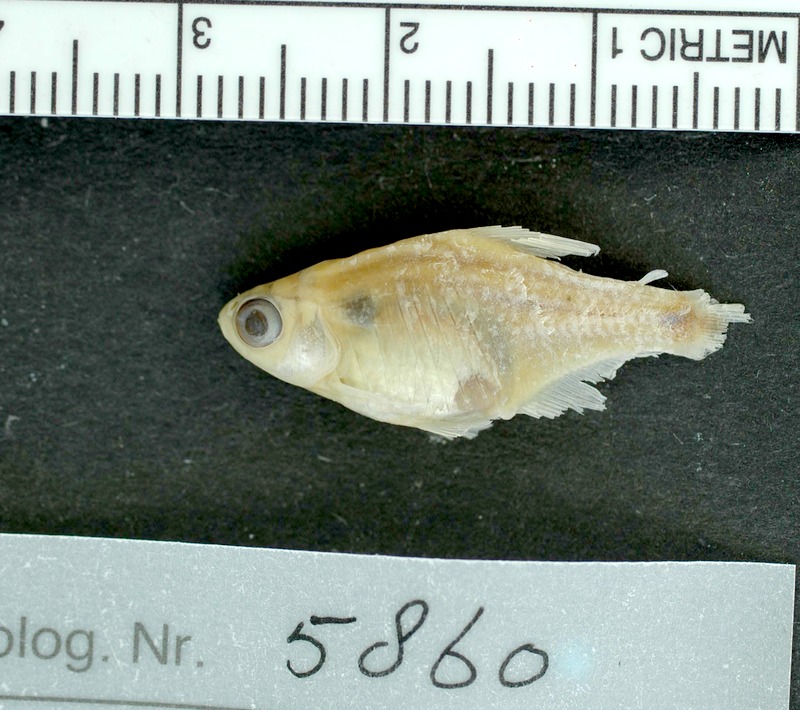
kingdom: Animalia
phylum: Chordata
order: Characiformes
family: Characidae
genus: Serrapinnus
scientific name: Serrapinnus kriegi
